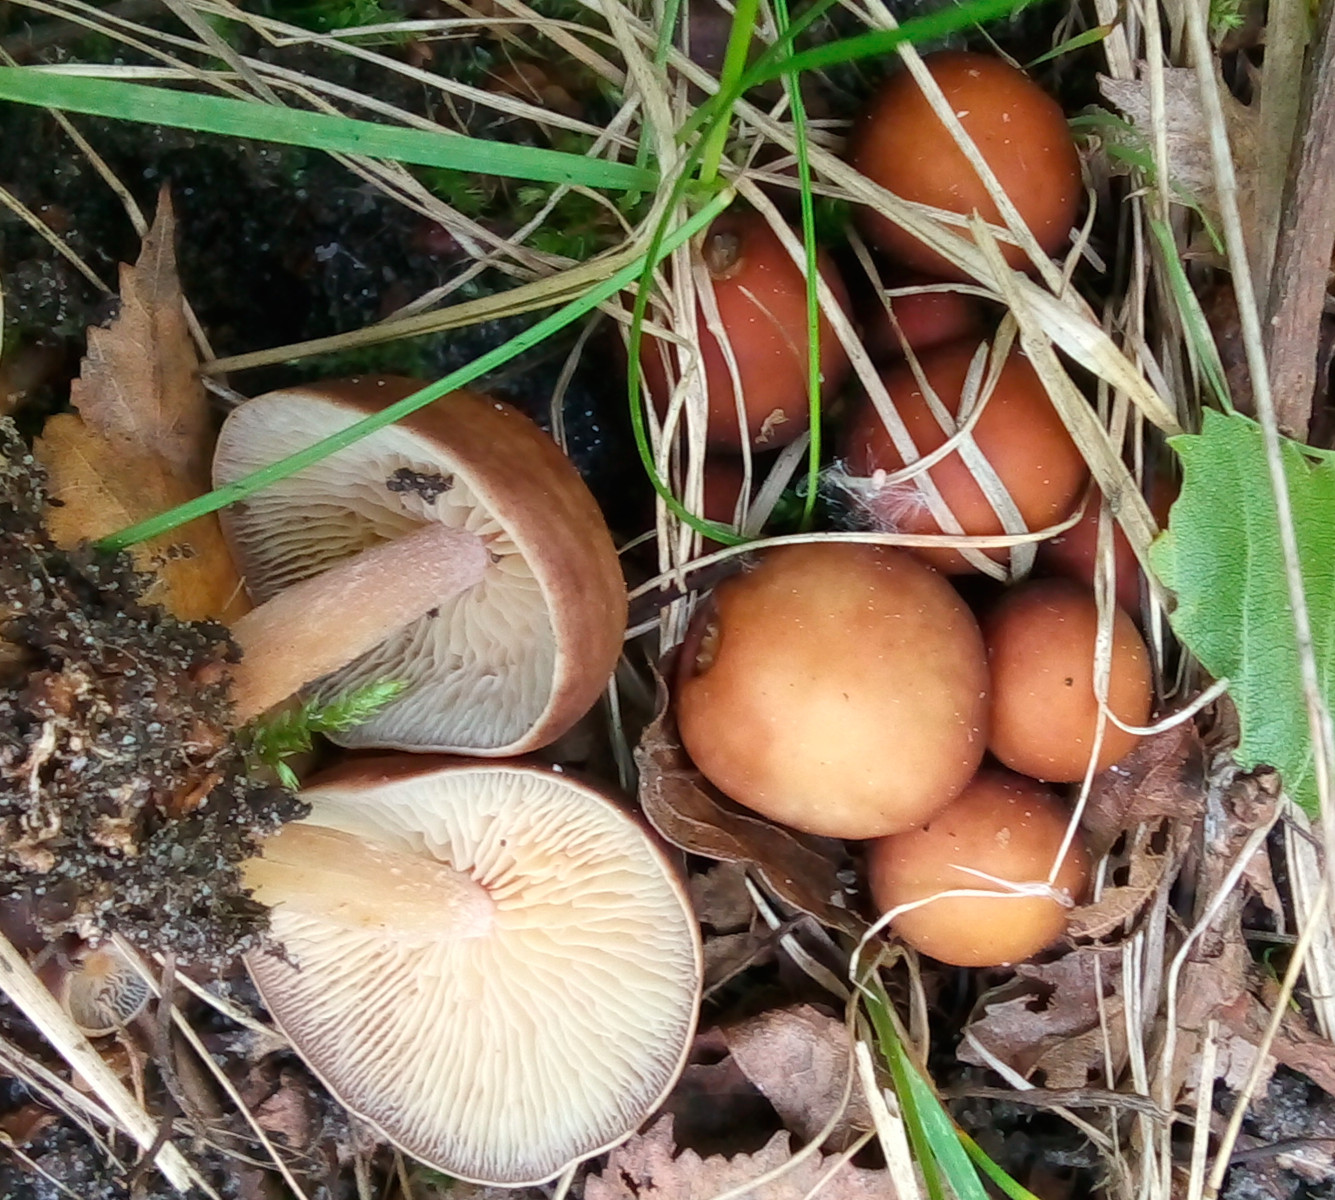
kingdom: Fungi
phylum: Basidiomycota
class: Agaricomycetes
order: Agaricales
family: Omphalotaceae
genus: Gymnopus
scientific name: Gymnopus ocior
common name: mørk fladhat
